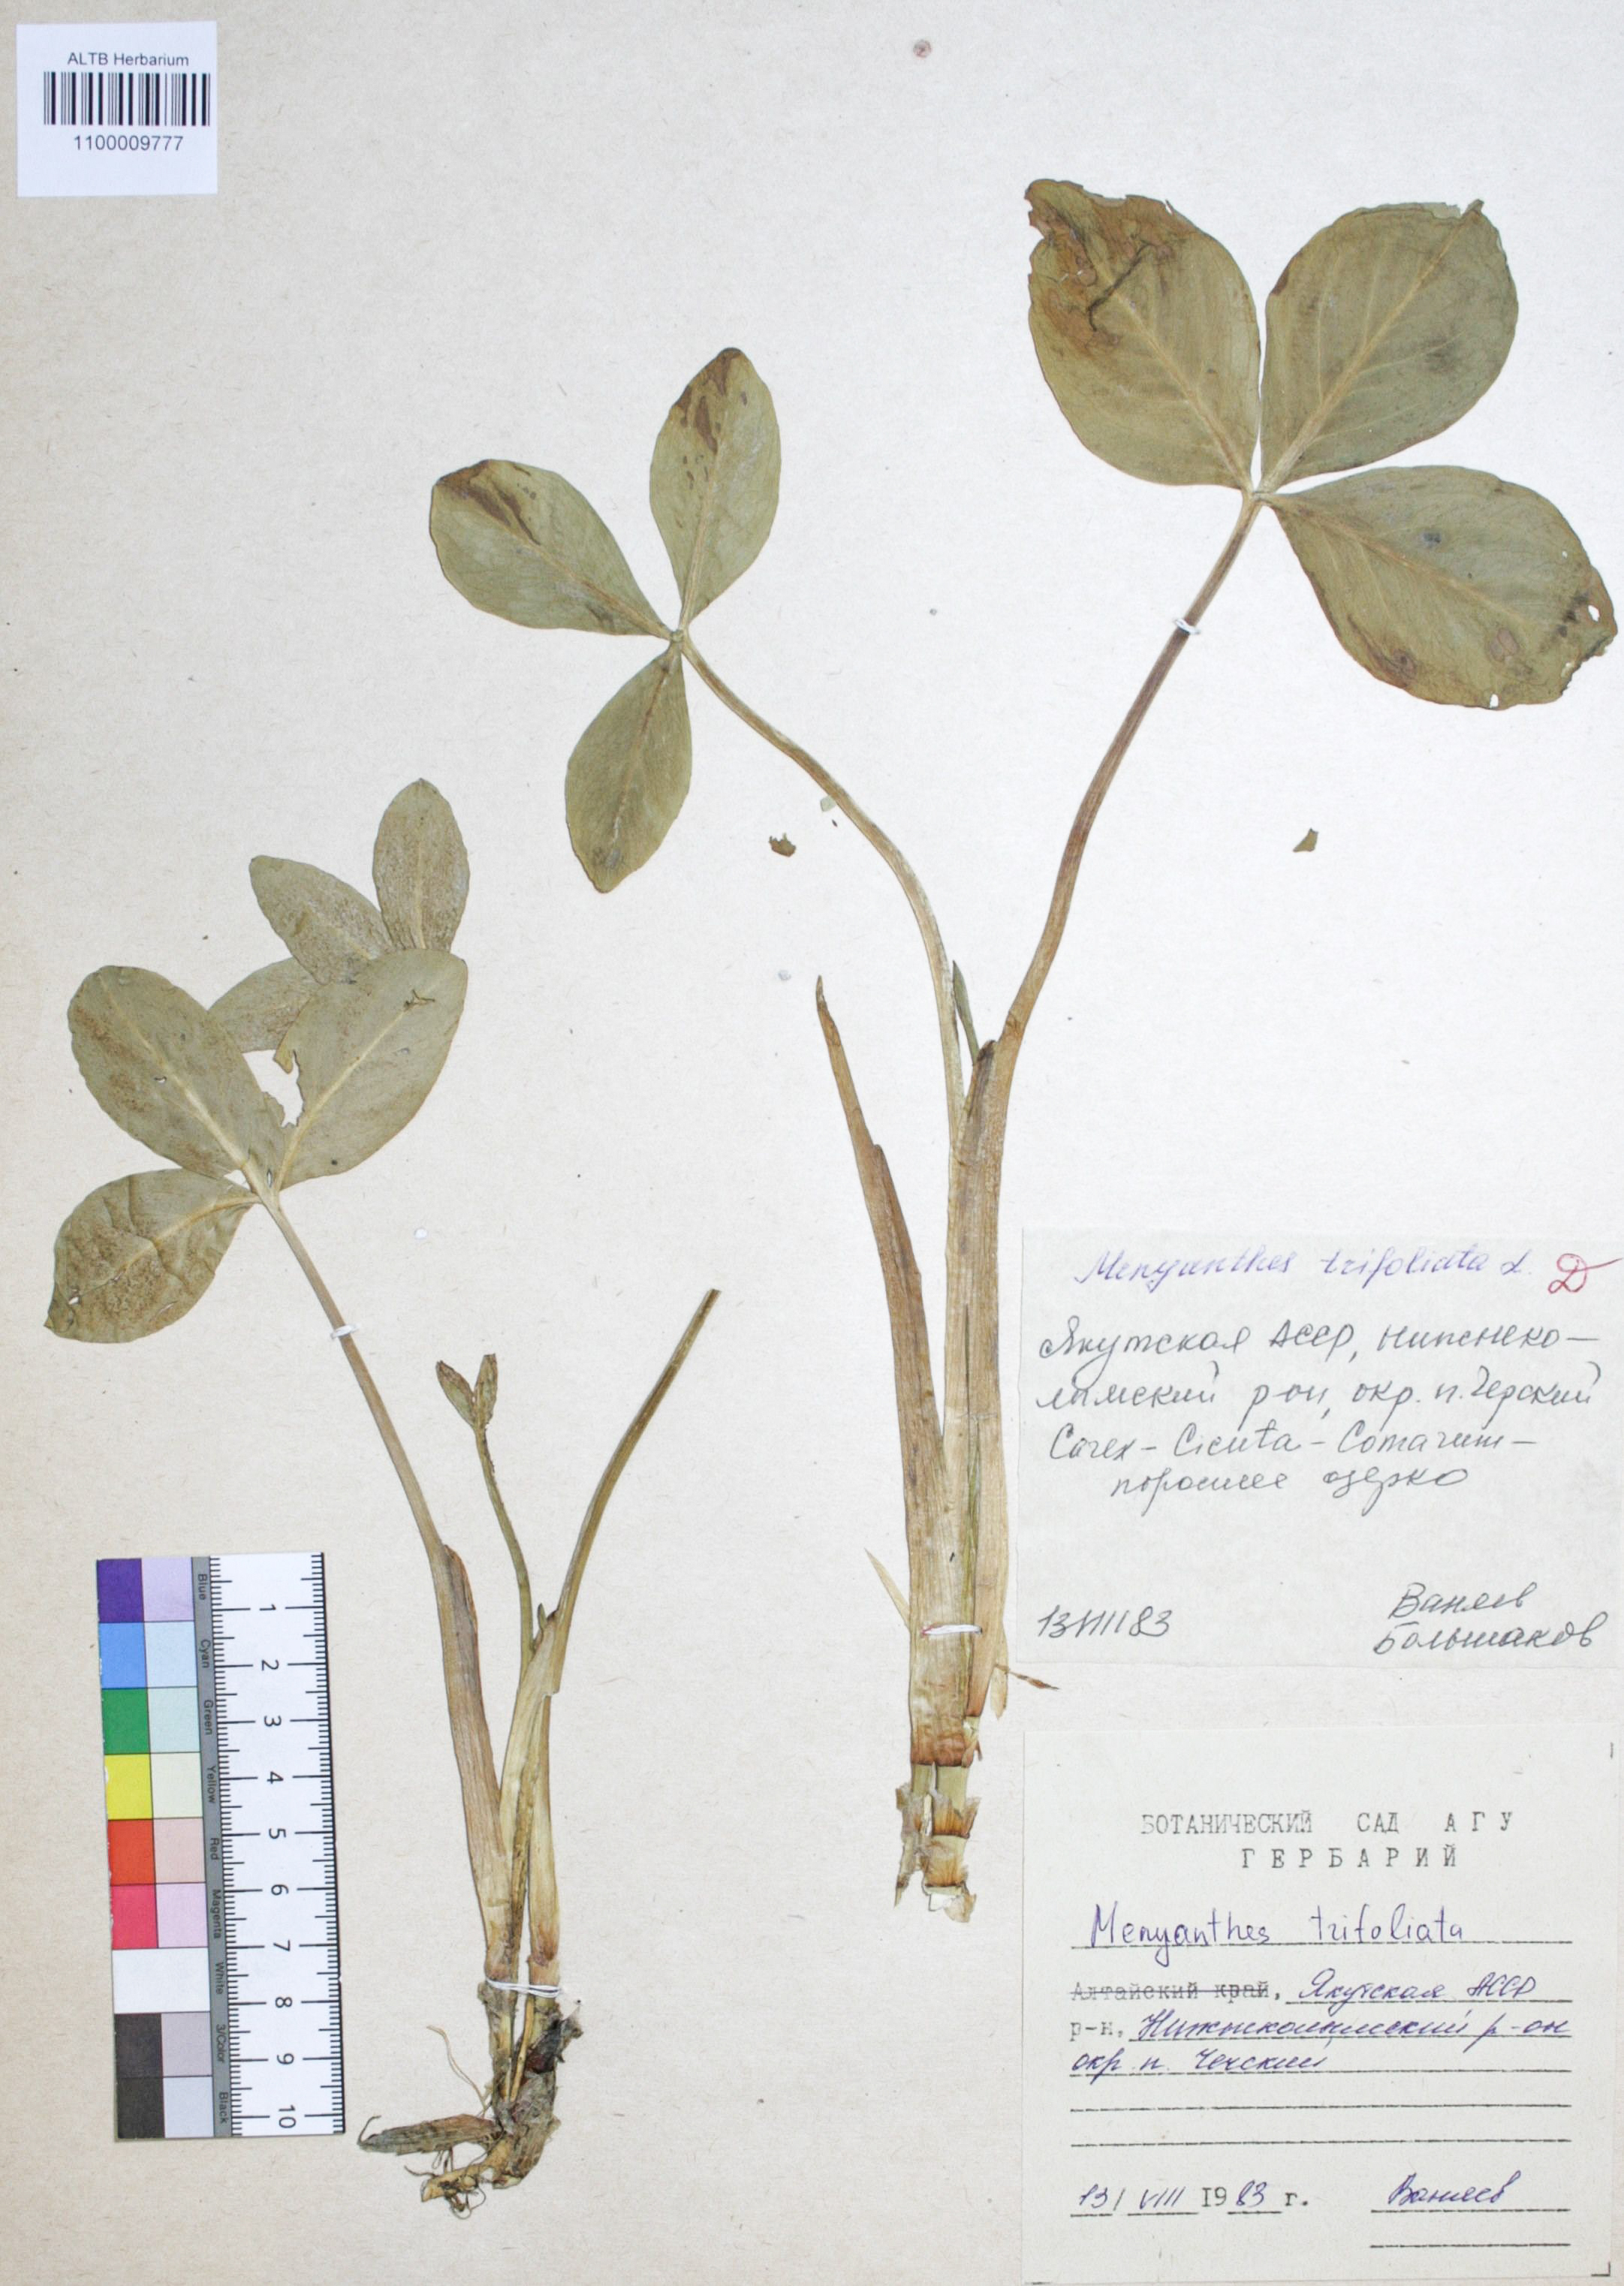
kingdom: Plantae
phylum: Tracheophyta
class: Magnoliopsida
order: Asterales
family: Menyanthaceae
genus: Menyanthes
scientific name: Menyanthes trifoliata
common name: Bogbean
